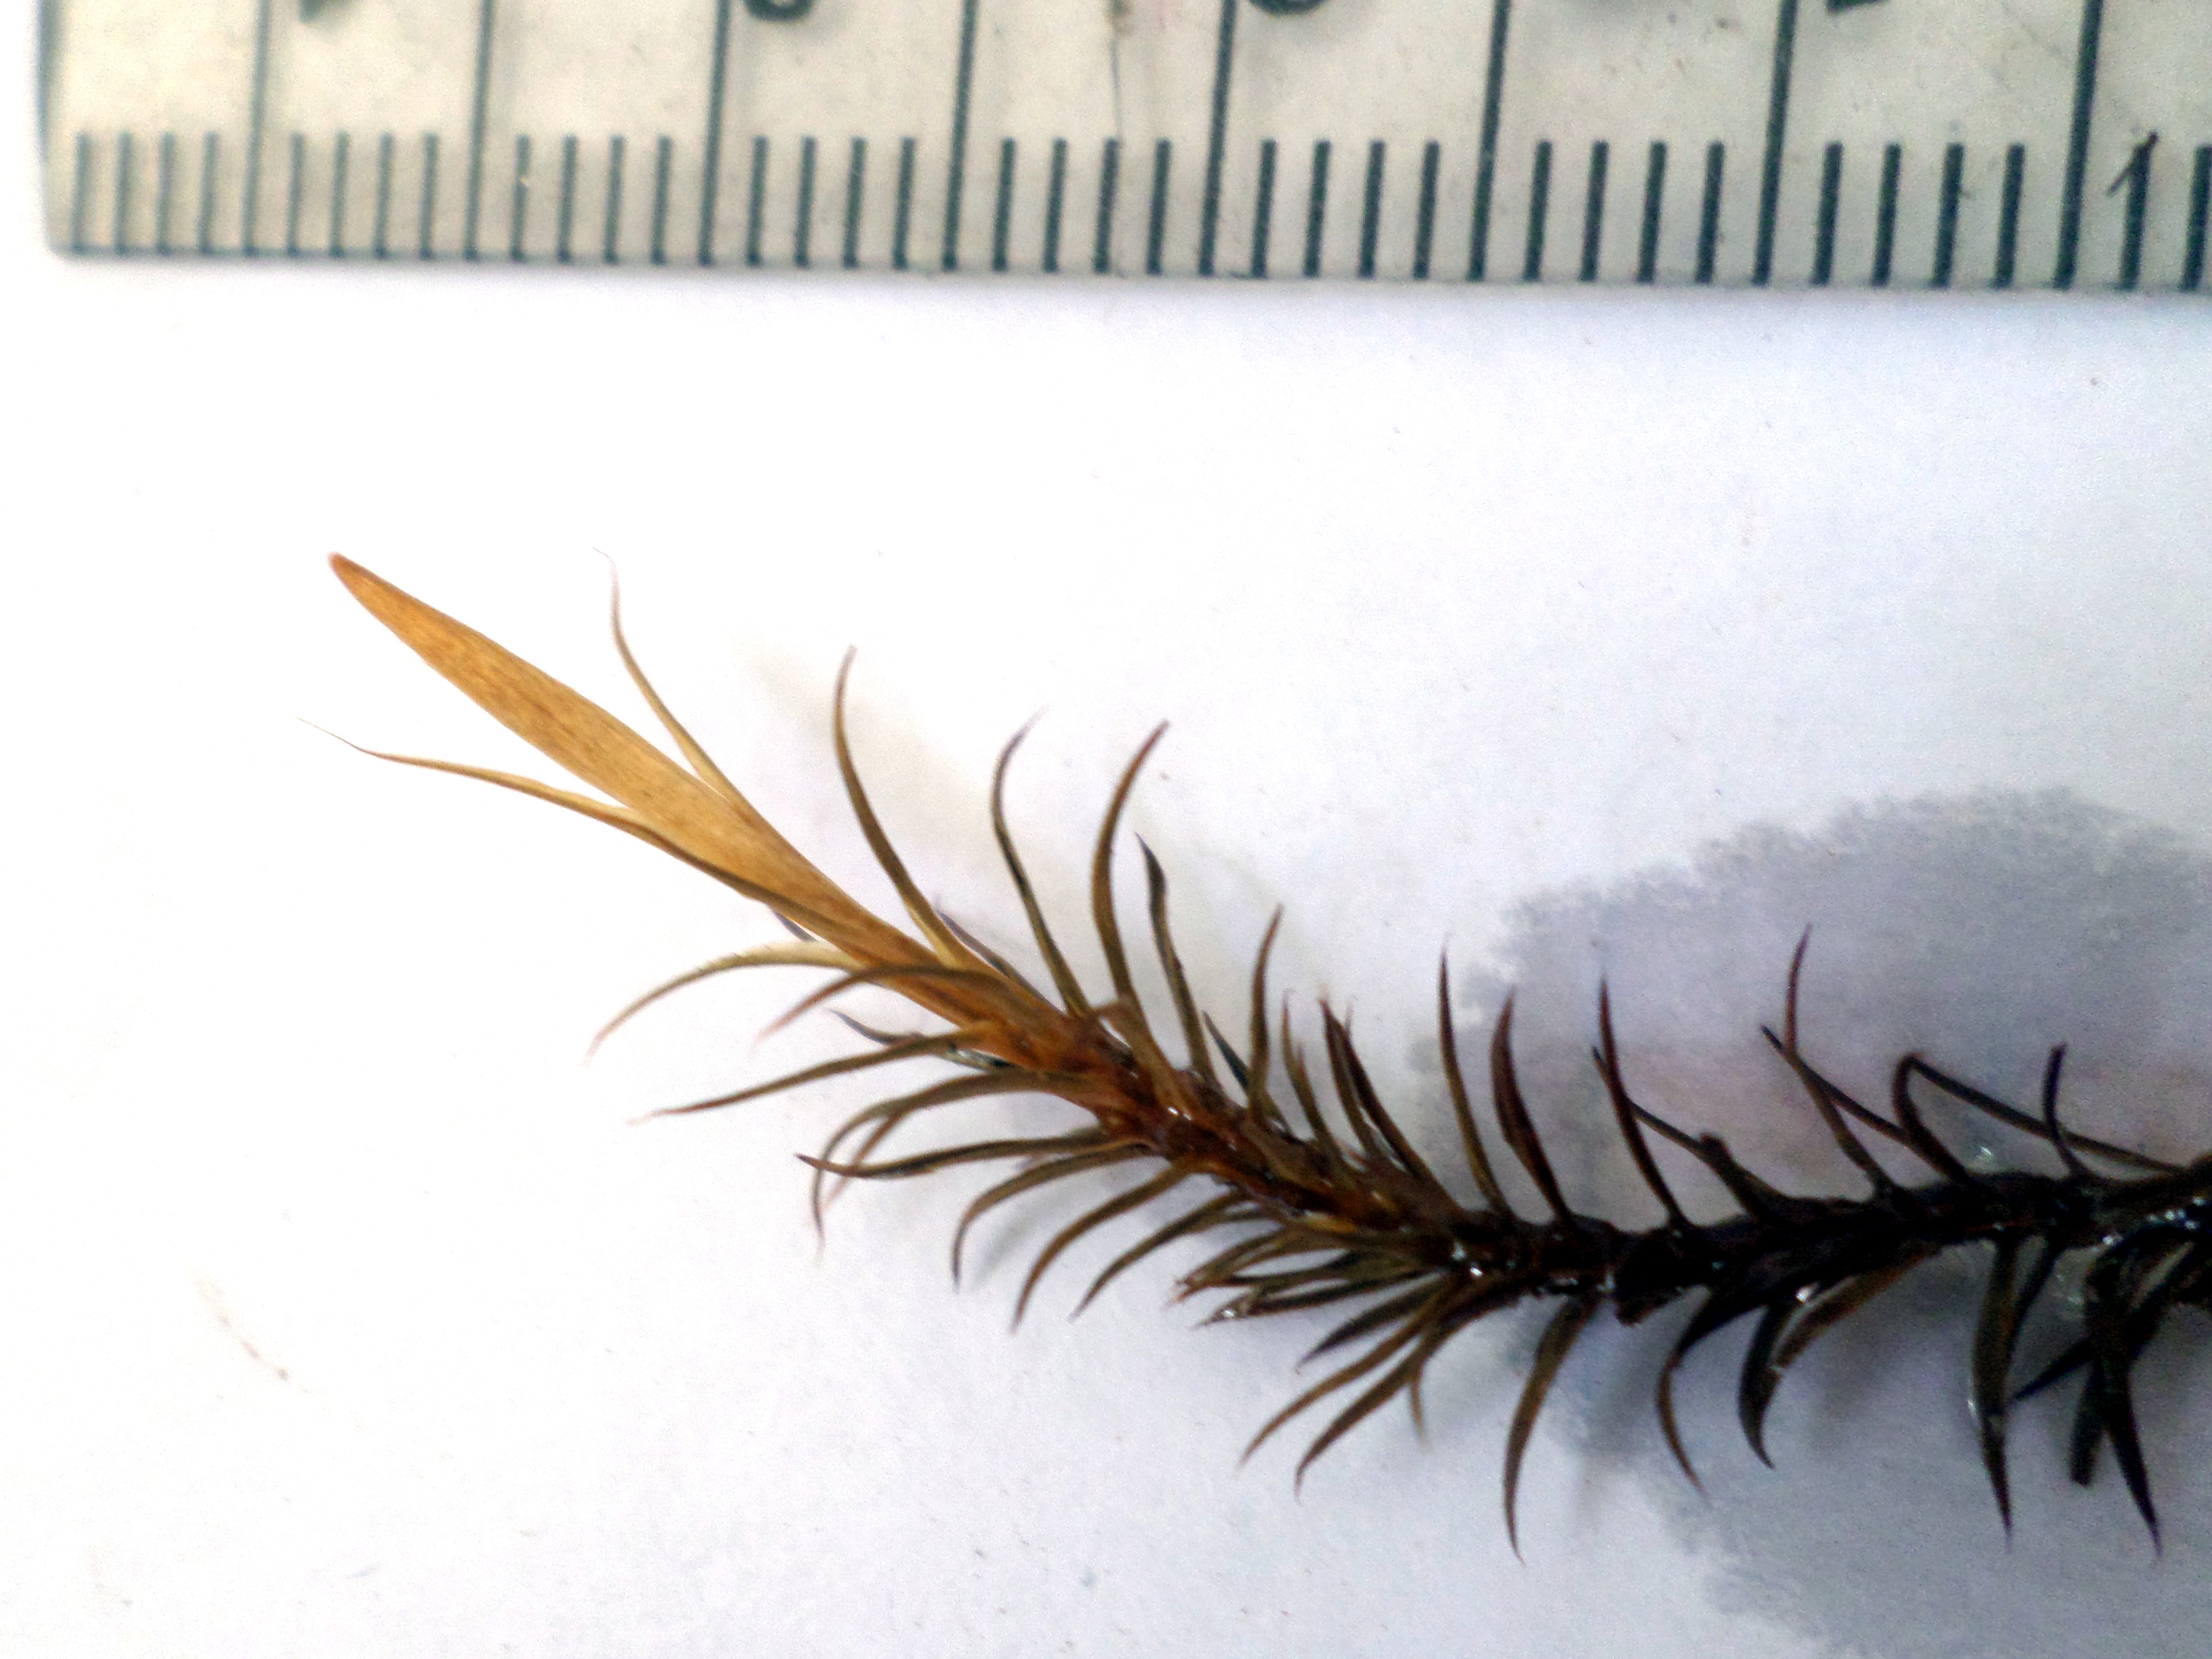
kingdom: Plantae
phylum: Bryophyta
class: Polytrichopsida
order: Polytrichales
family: Polytrichaceae
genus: Polytrichum
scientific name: Polytrichum commune
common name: Common haircap
